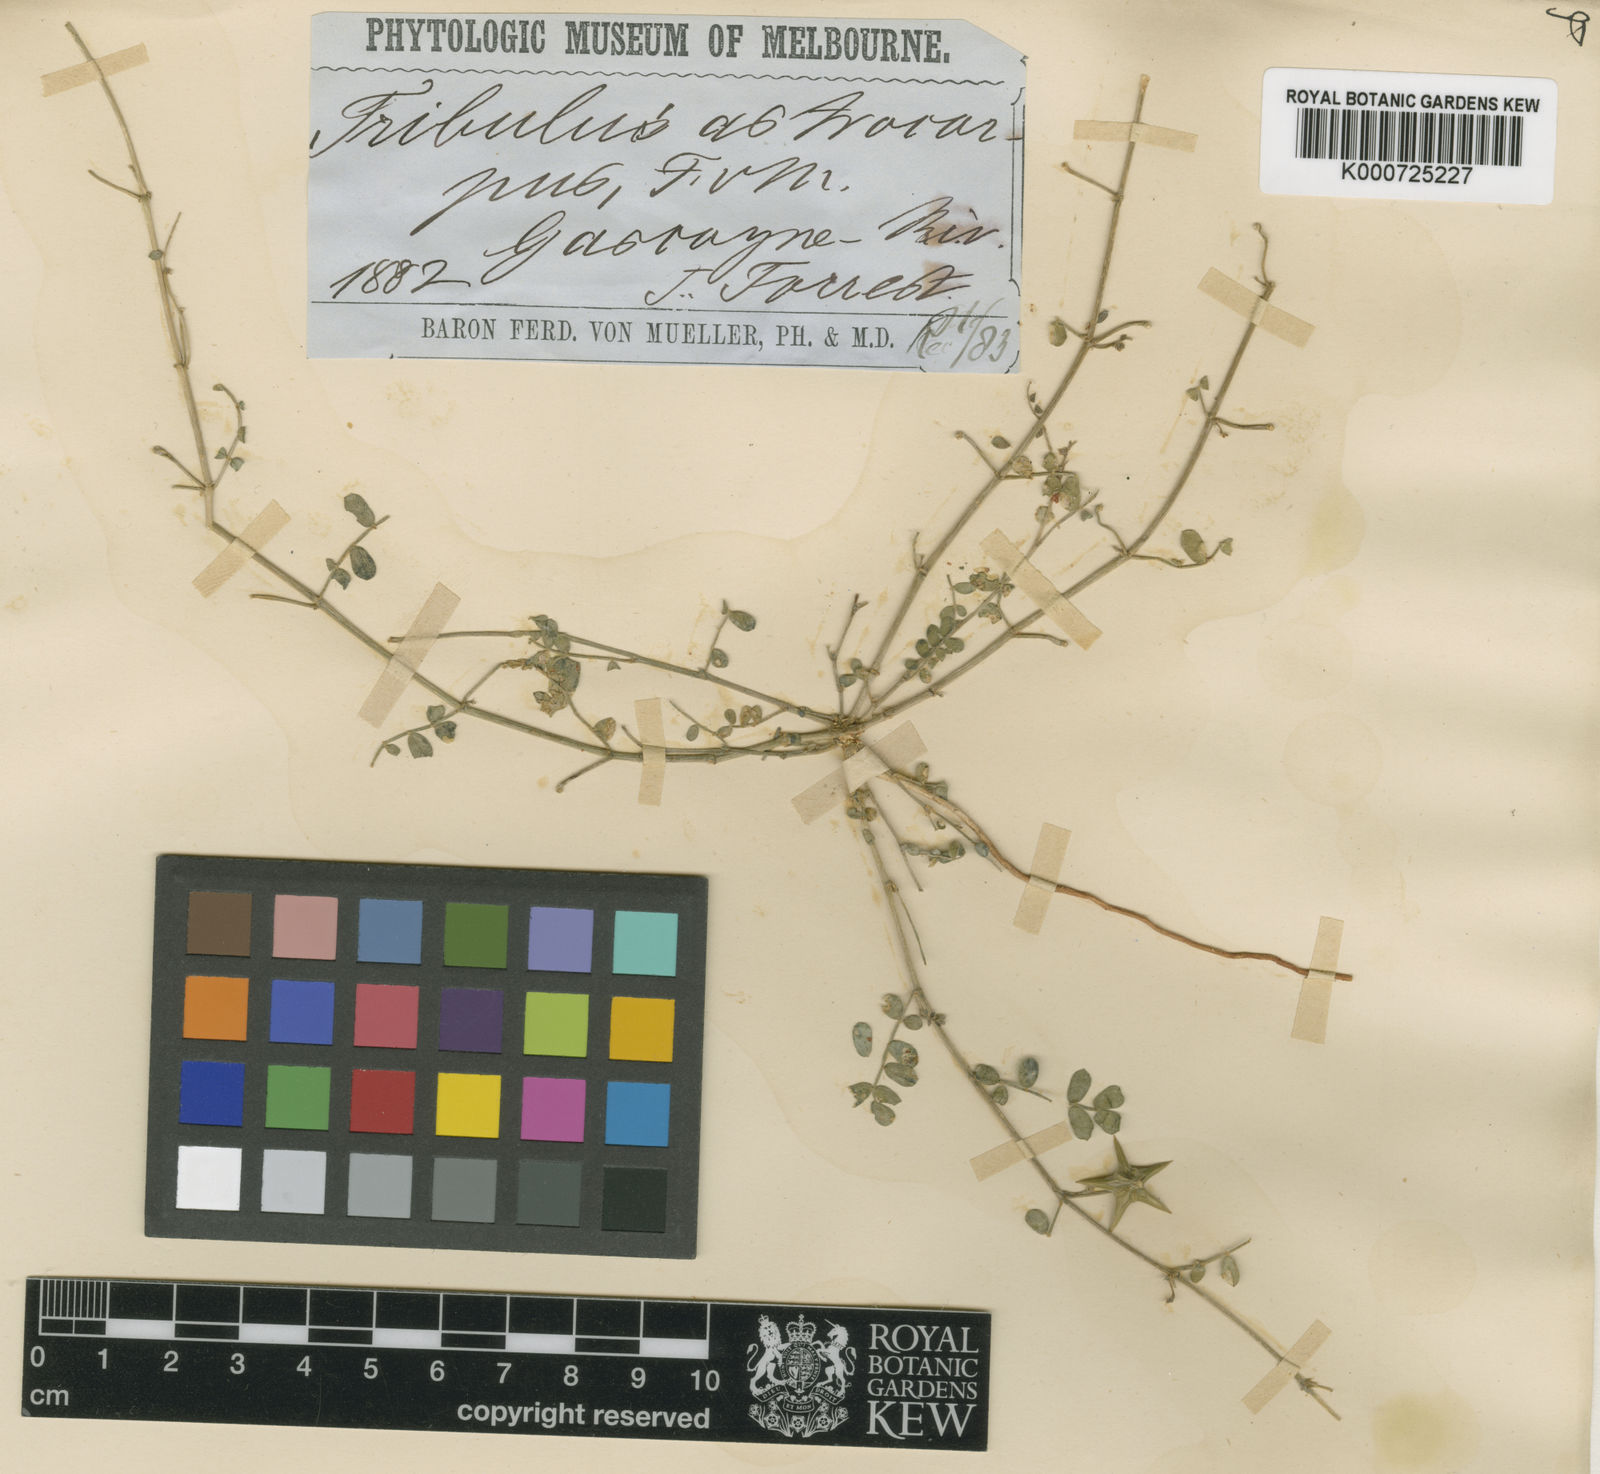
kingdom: Plantae
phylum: Tracheophyta
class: Magnoliopsida
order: Zygophyllales
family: Zygophyllaceae
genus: Tribulus
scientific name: Tribulus astrocarpus
